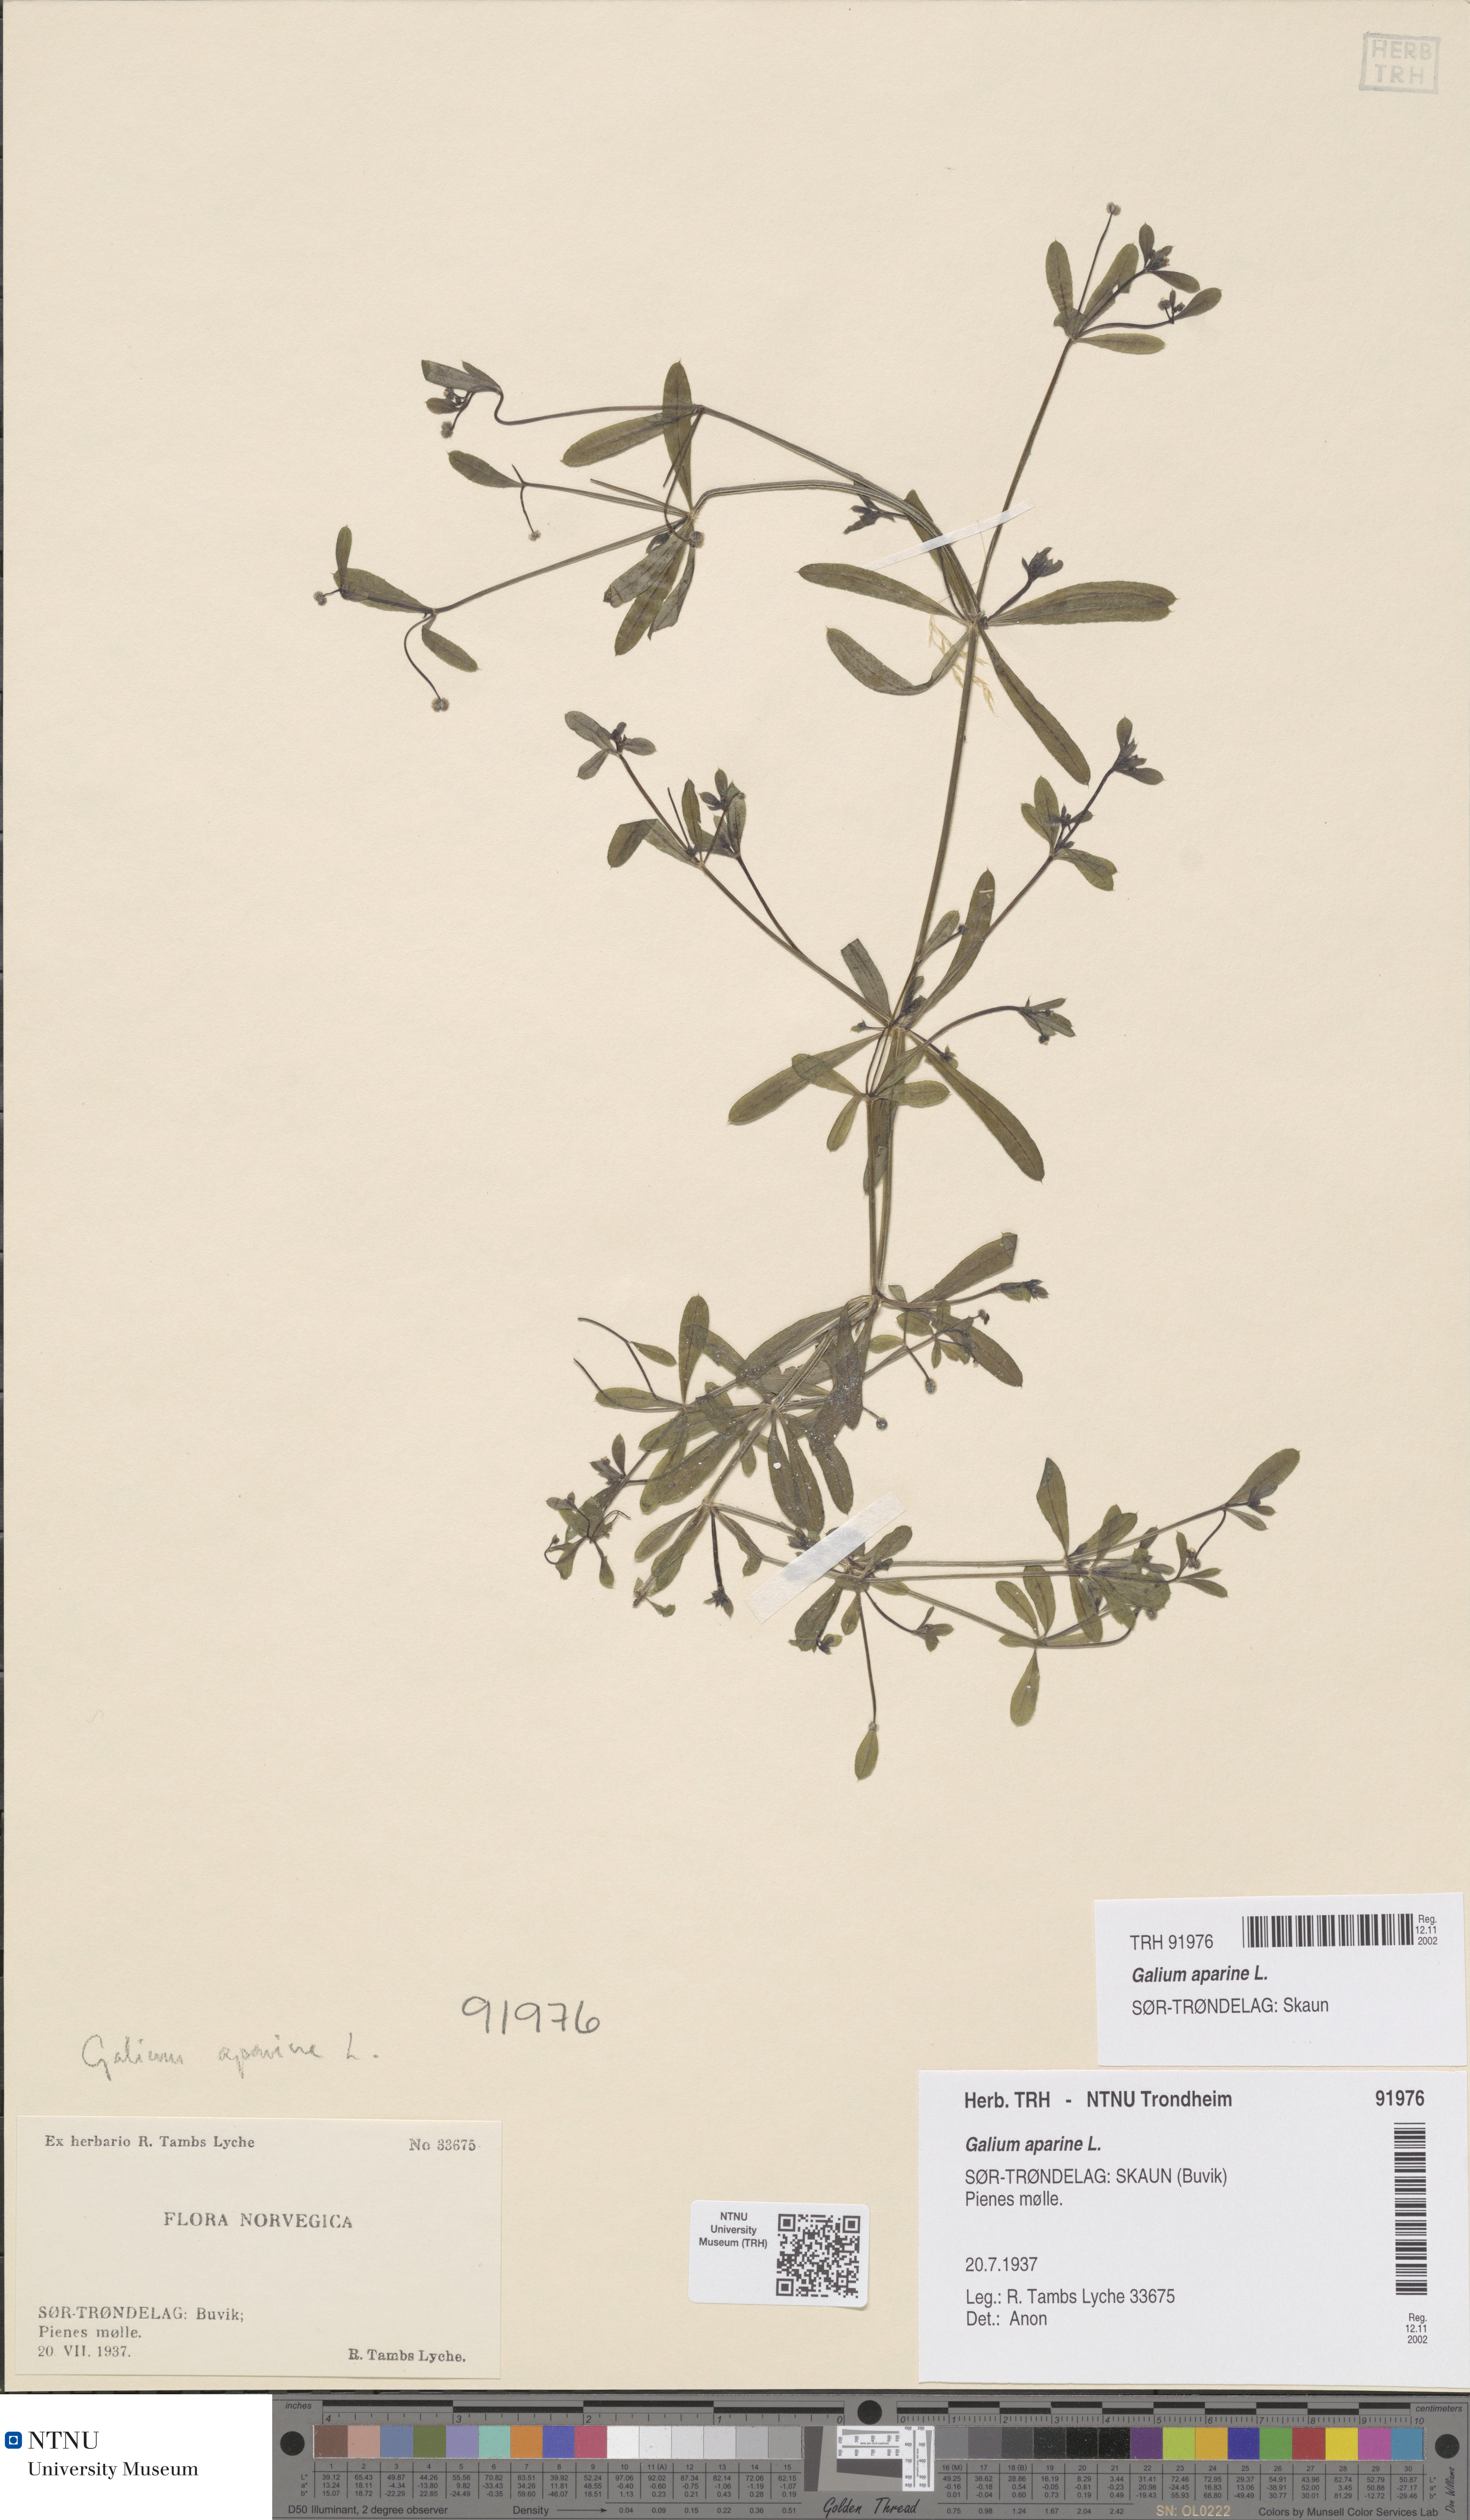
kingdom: Plantae
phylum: Tracheophyta
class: Magnoliopsida
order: Gentianales
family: Rubiaceae
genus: Galium
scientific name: Galium aparine
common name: Cleavers
